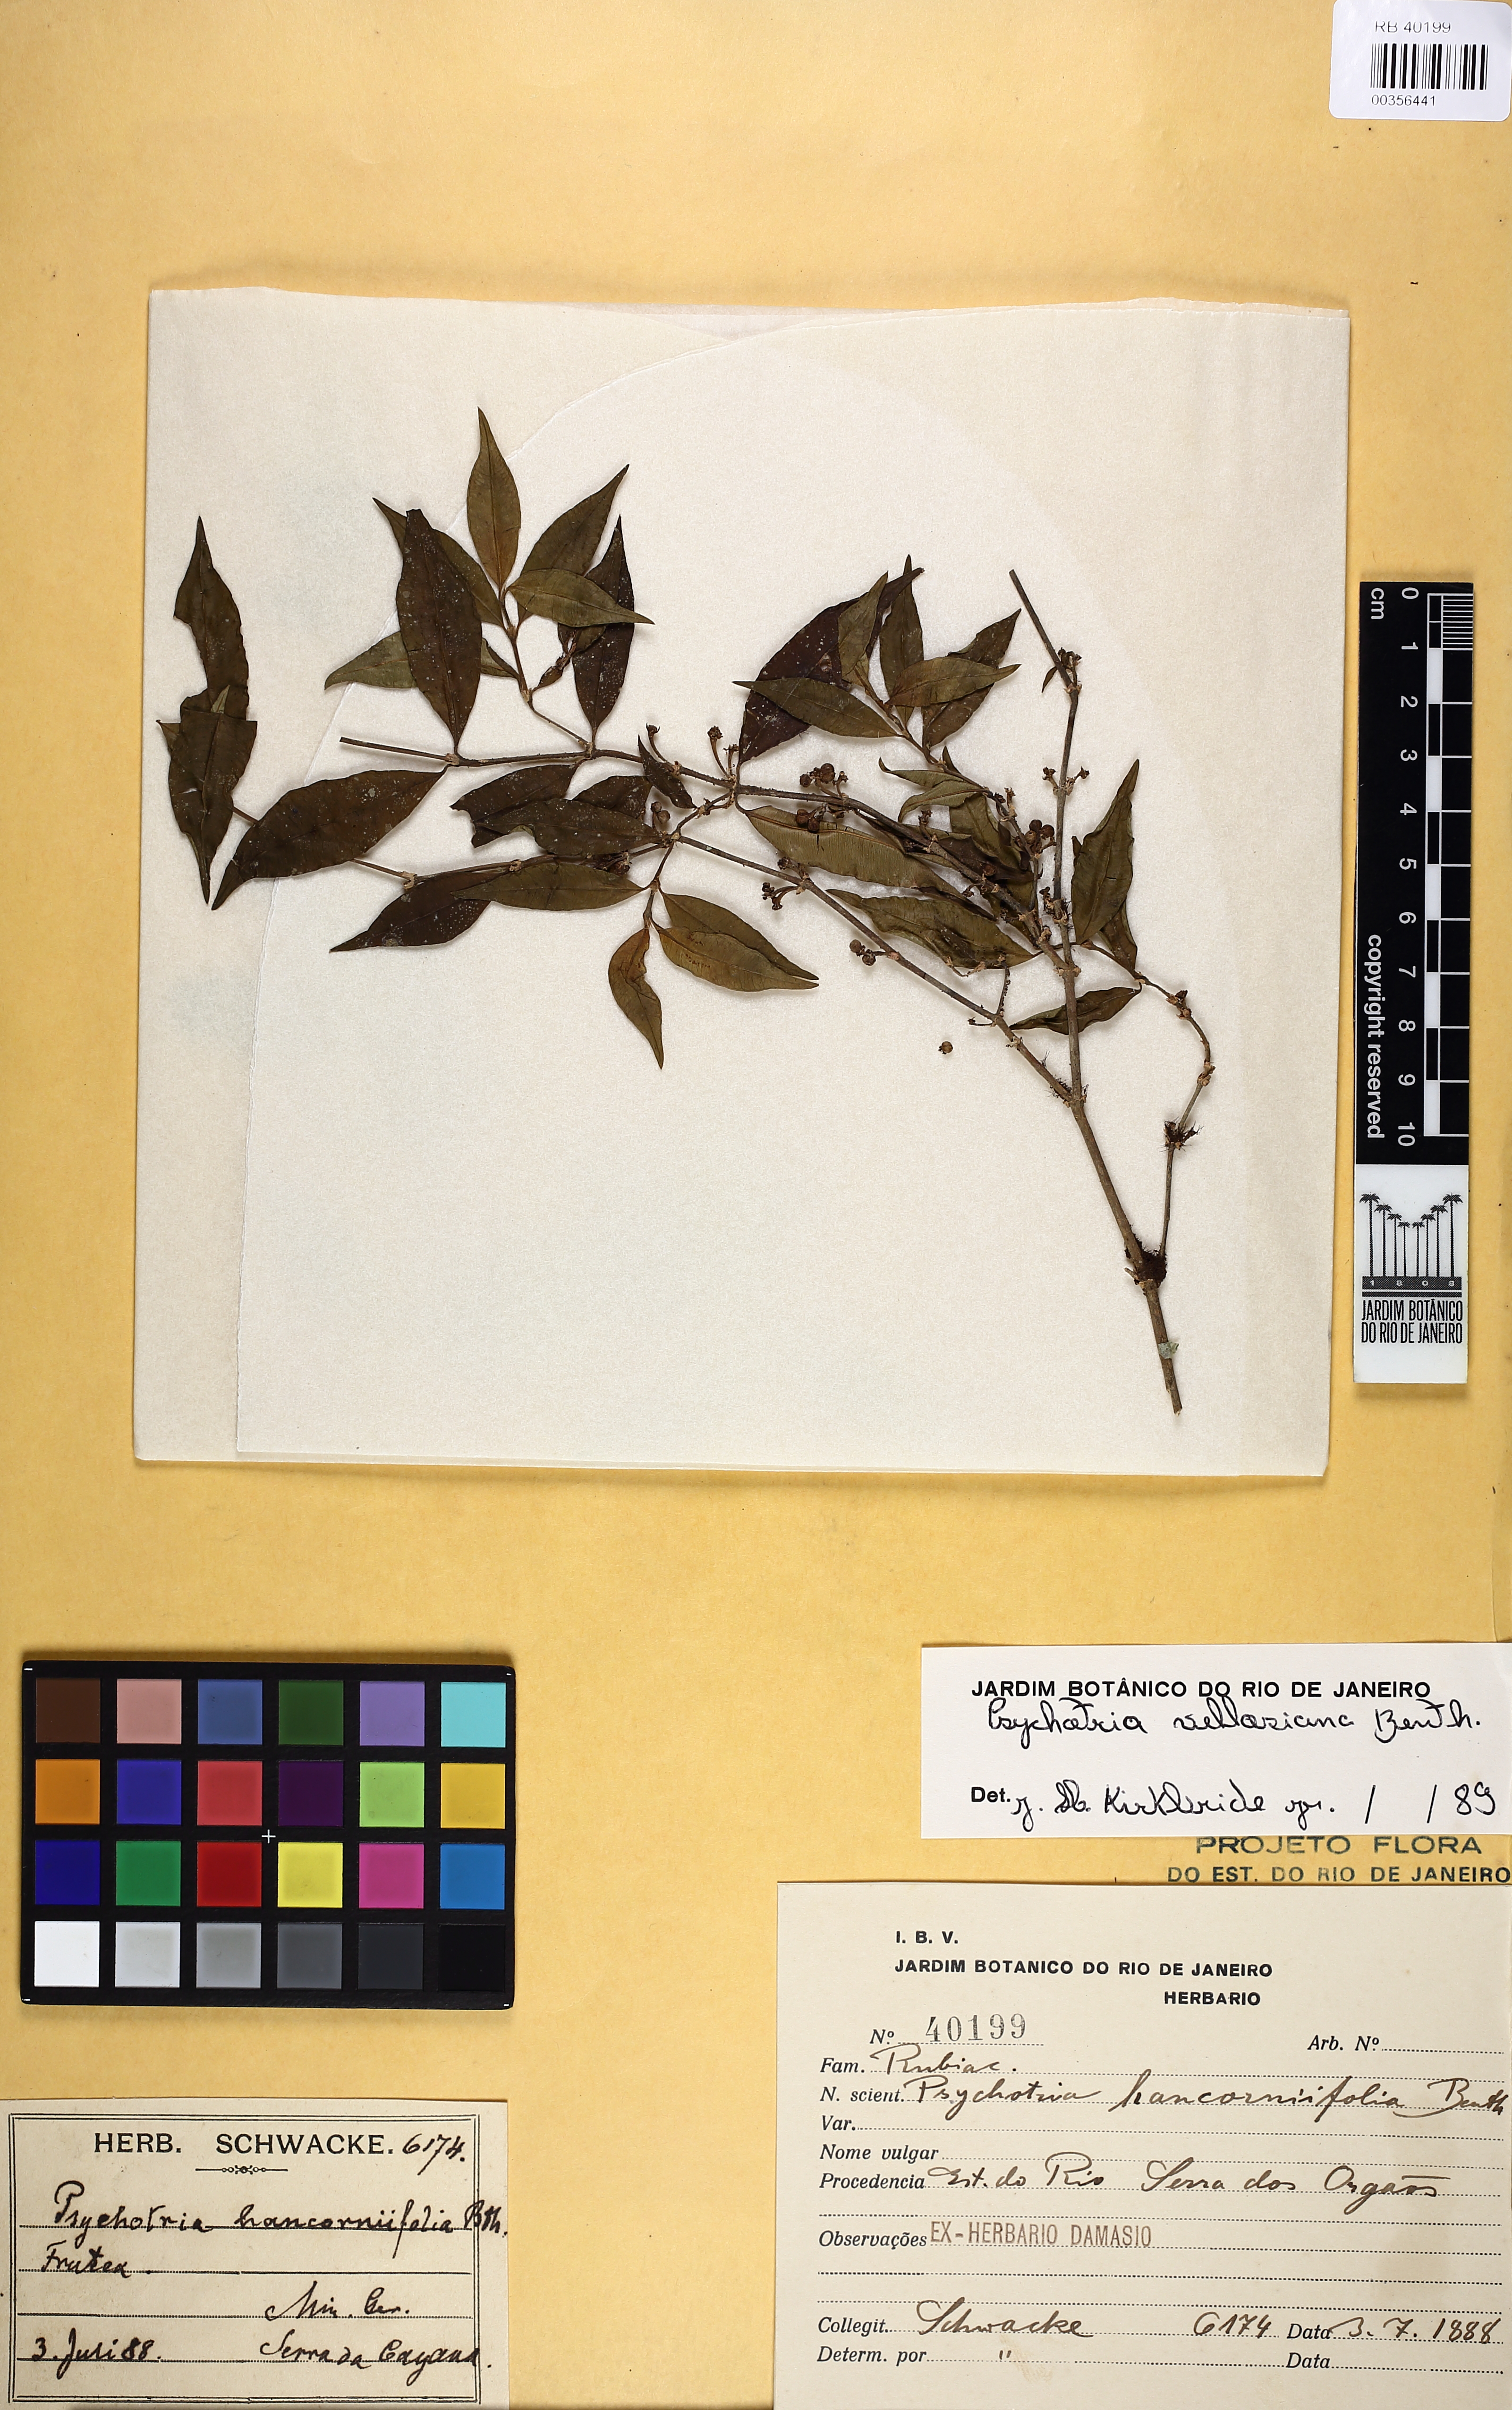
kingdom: Plantae
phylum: Tracheophyta
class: Magnoliopsida
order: Gentianales
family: Rubiaceae
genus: Palicourea
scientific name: Palicourea sessilis
